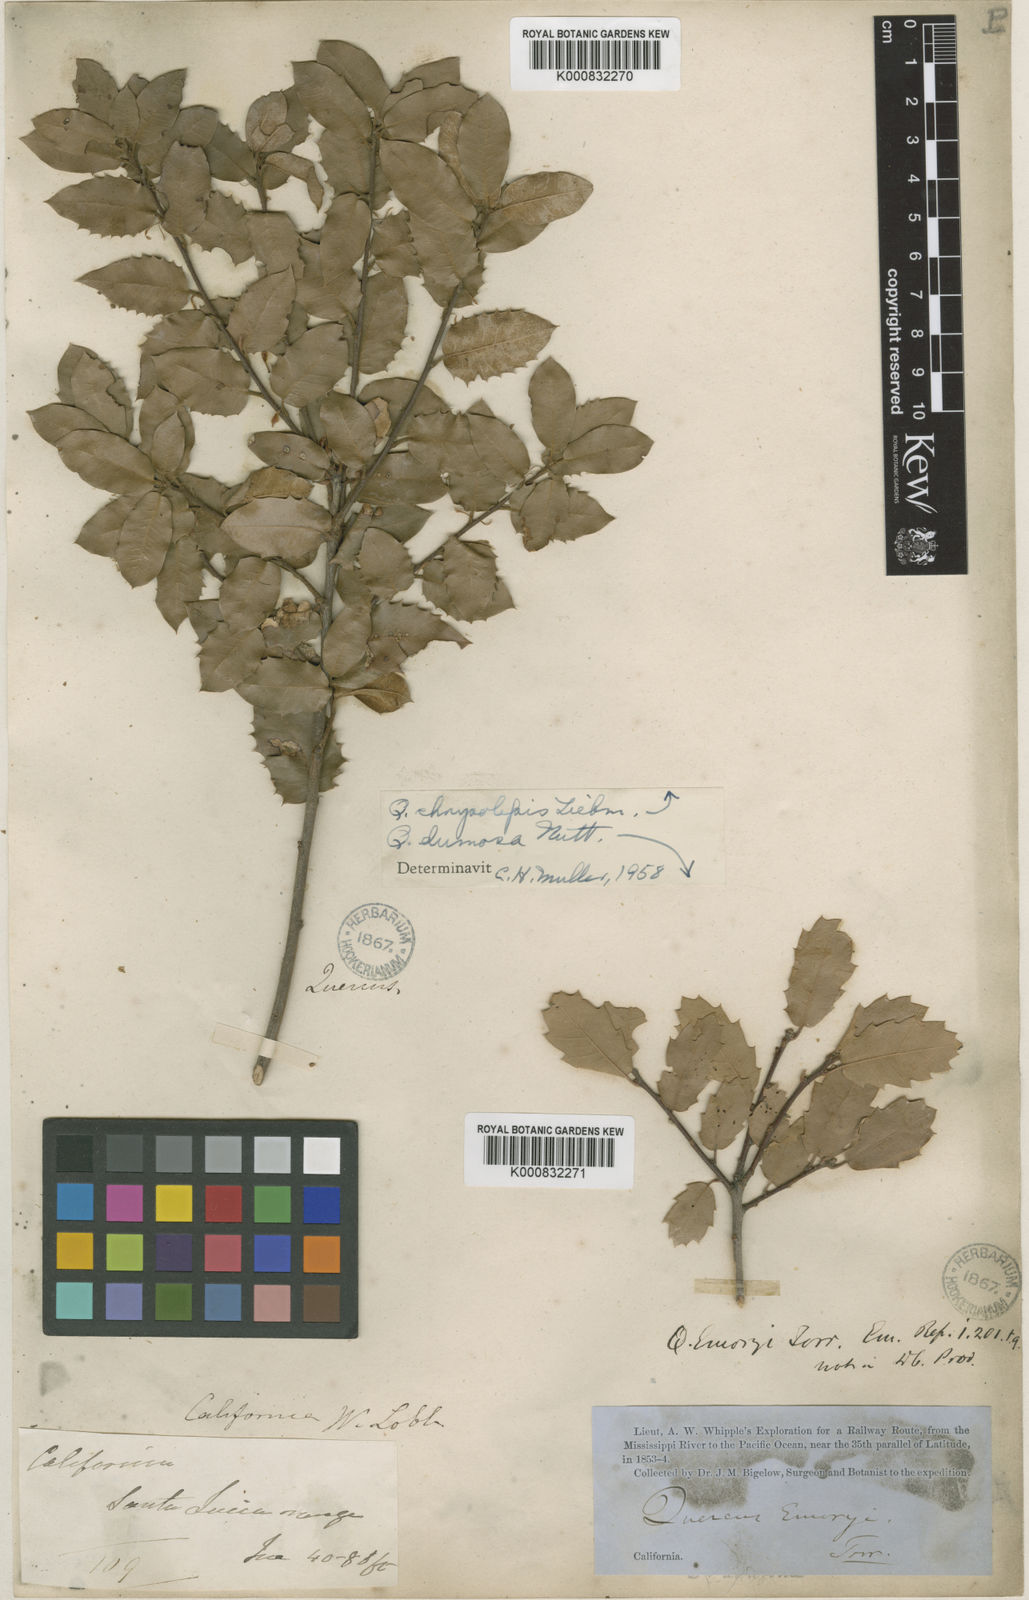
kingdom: Plantae
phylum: Tracheophyta
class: Magnoliopsida
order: Fagales
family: Fagaceae
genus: Quercus
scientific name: Quercus dumosa
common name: Coastal sage scrub oak
